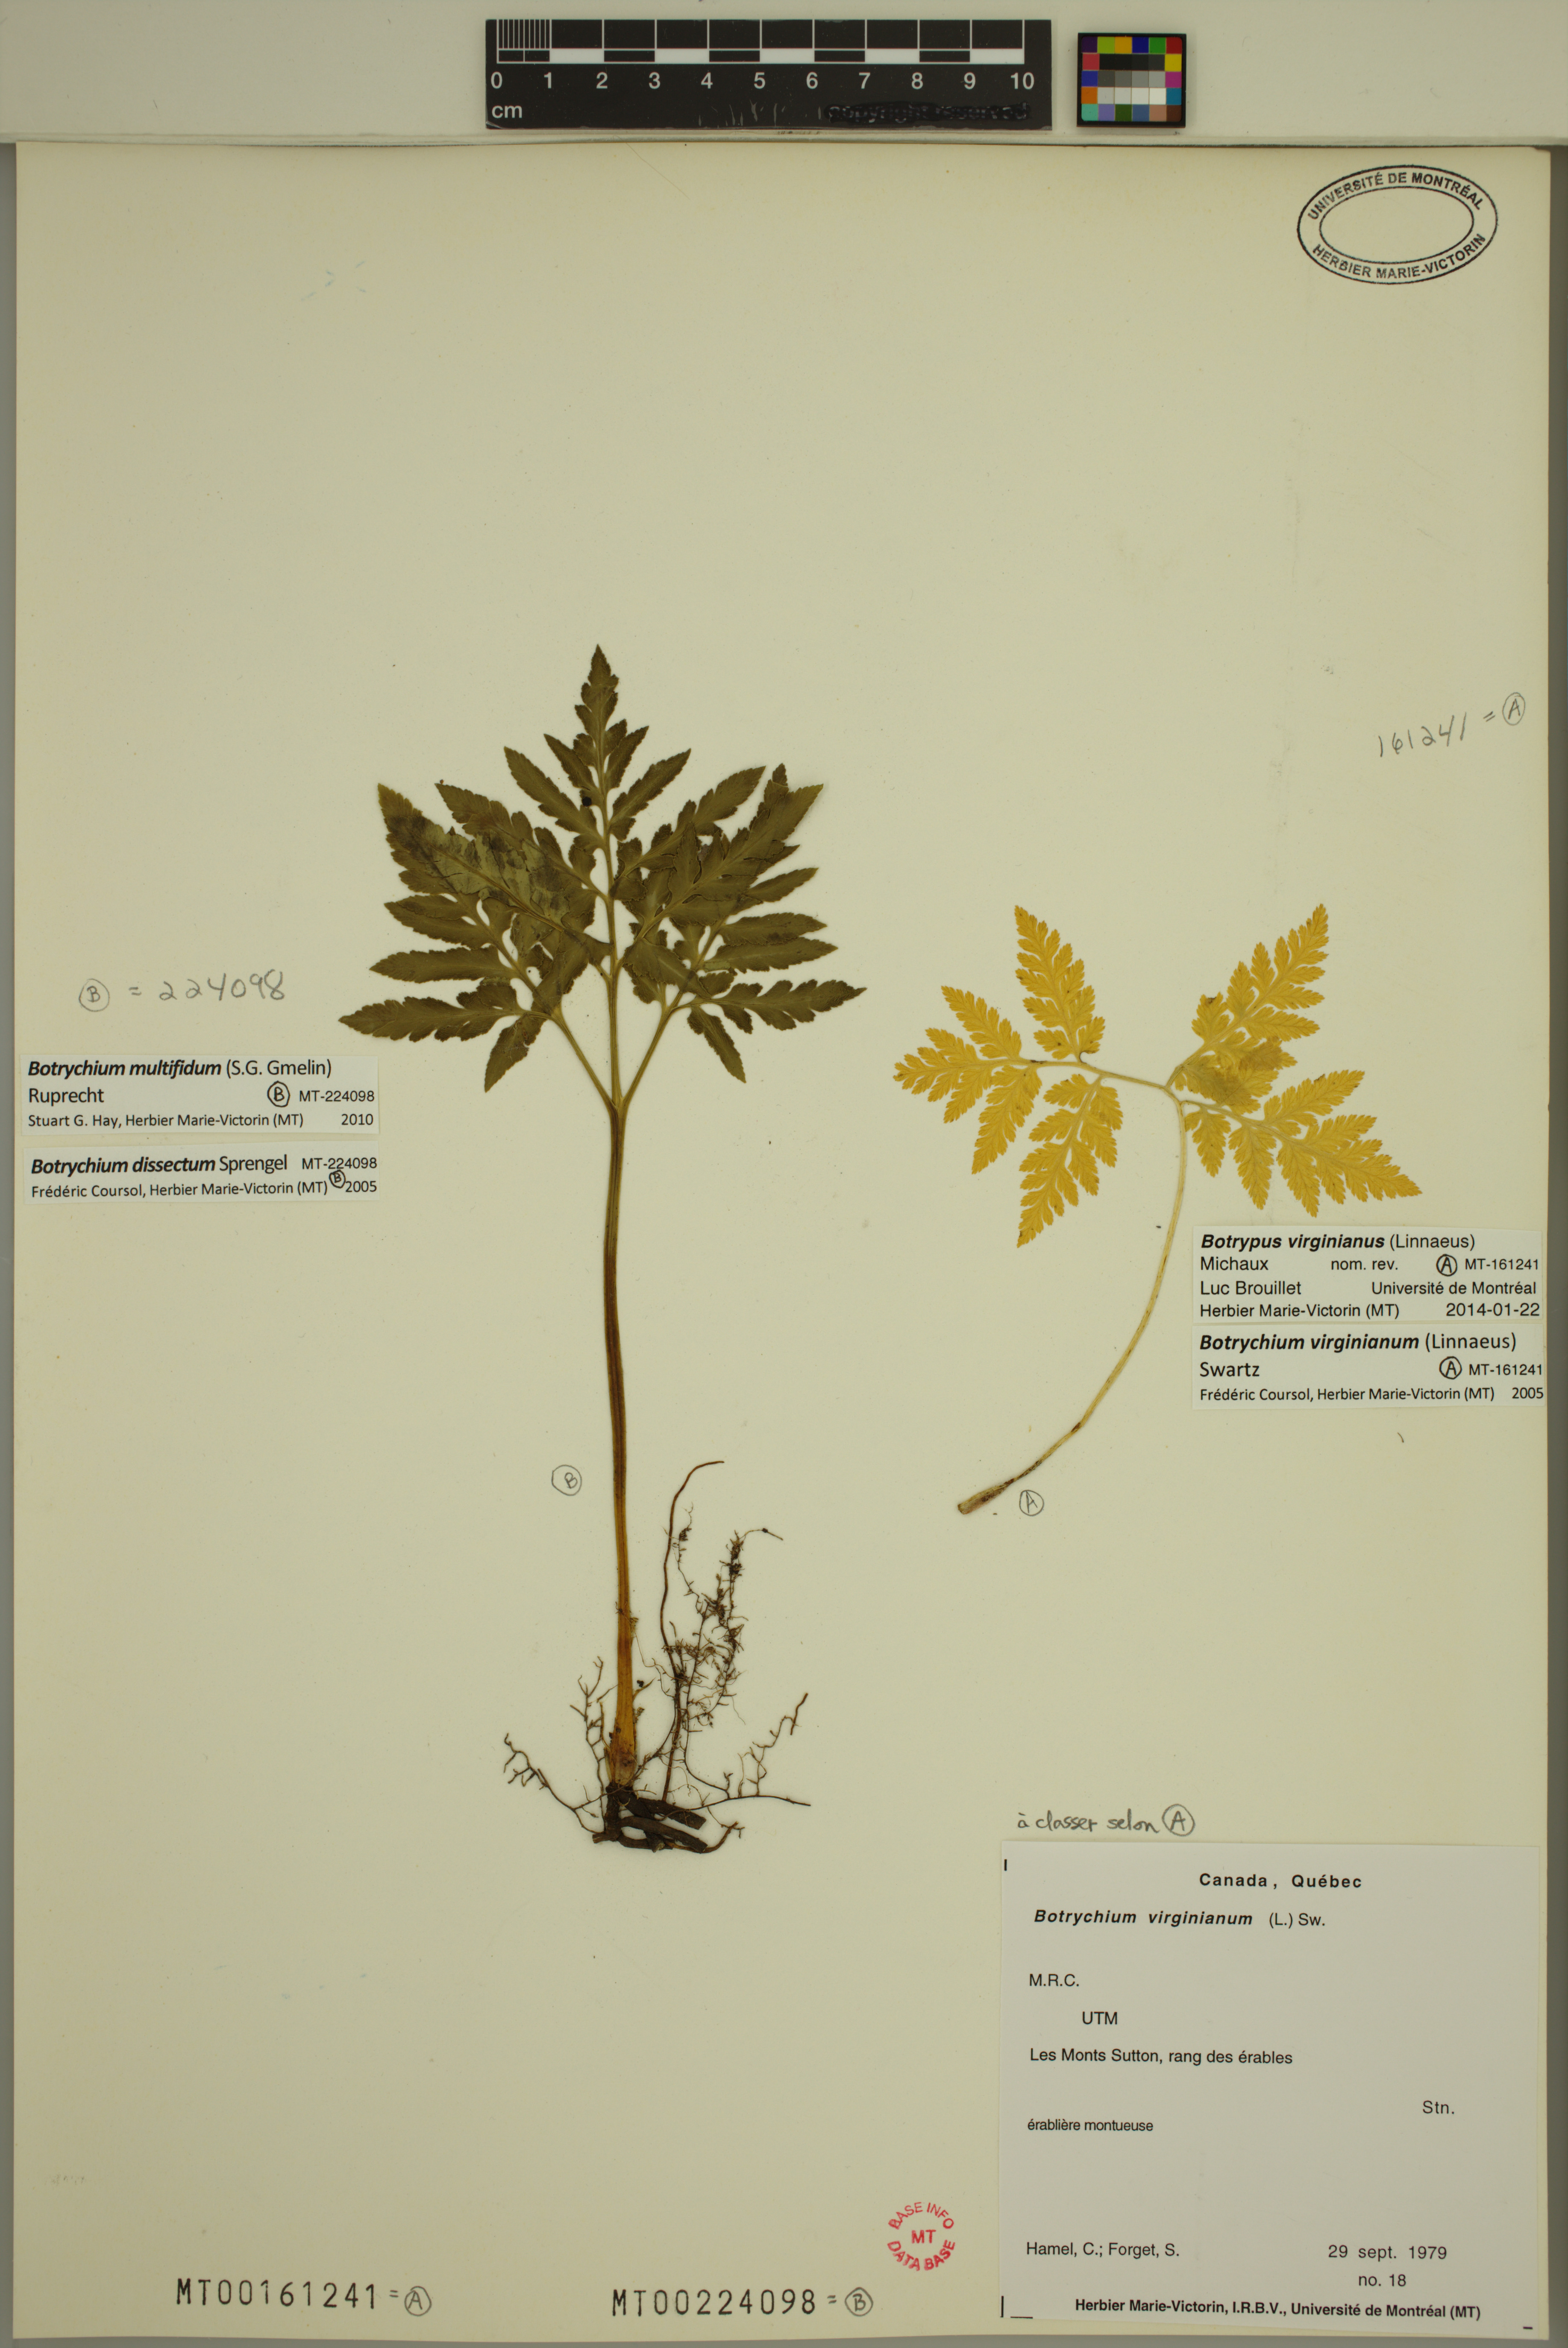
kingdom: Plantae
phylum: Tracheophyta
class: Polypodiopsida
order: Ophioglossales
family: Ophioglossaceae
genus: Botrypus
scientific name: Botrypus virginianus
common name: Common grapefern
